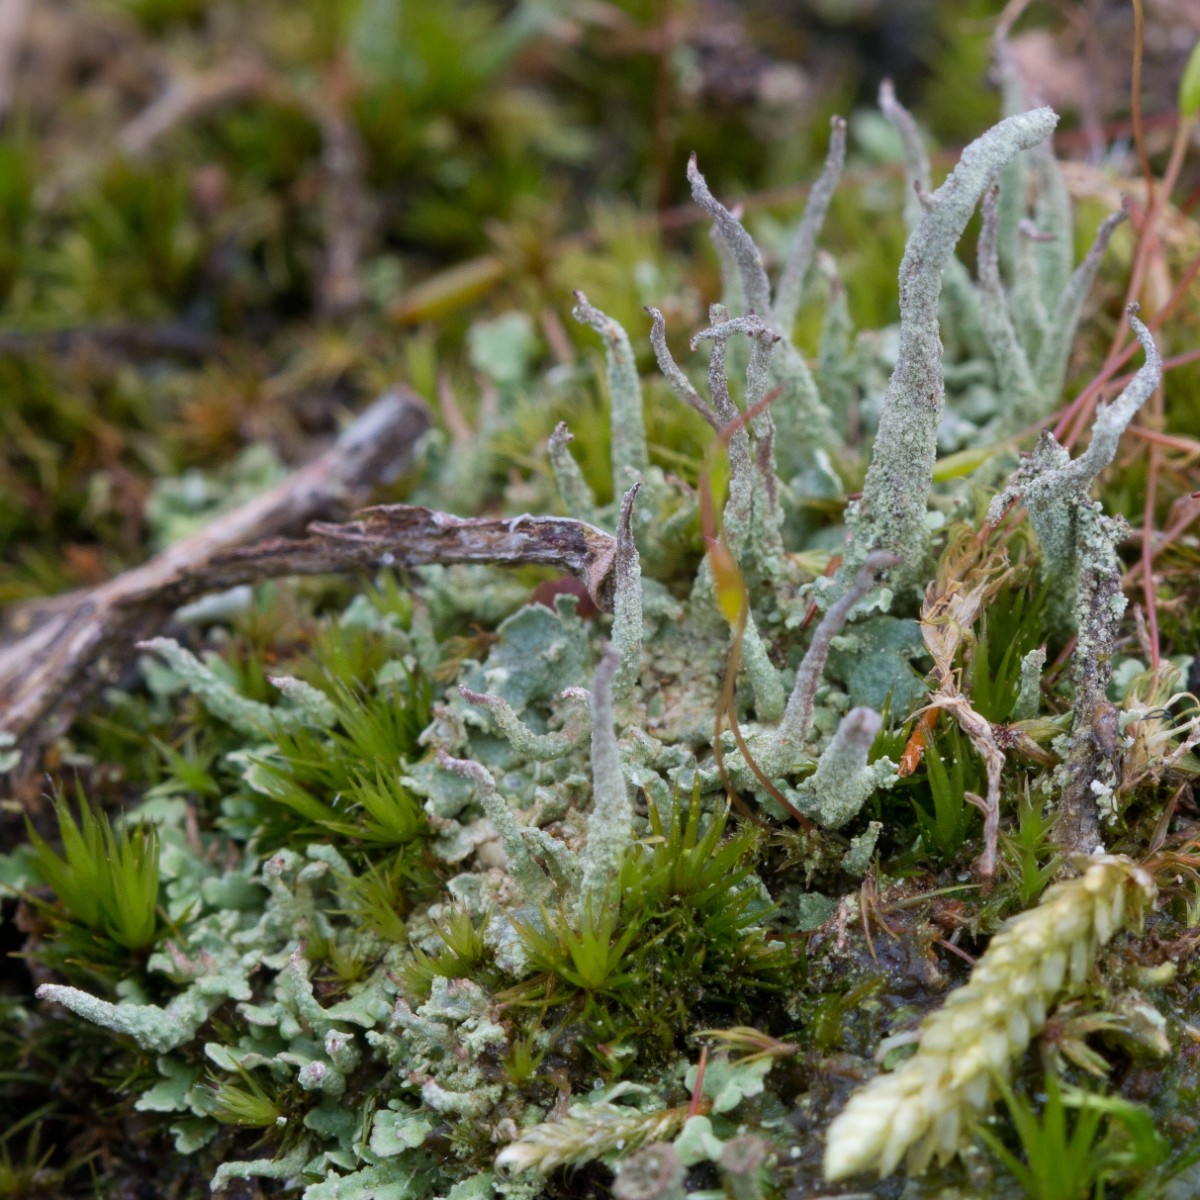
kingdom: Fungi
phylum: Ascomycota
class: Lecanoromycetes
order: Lecanorales
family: Cladoniaceae
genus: Cladonia
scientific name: Cladonia coniocraea
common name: træfods-bægerlav
